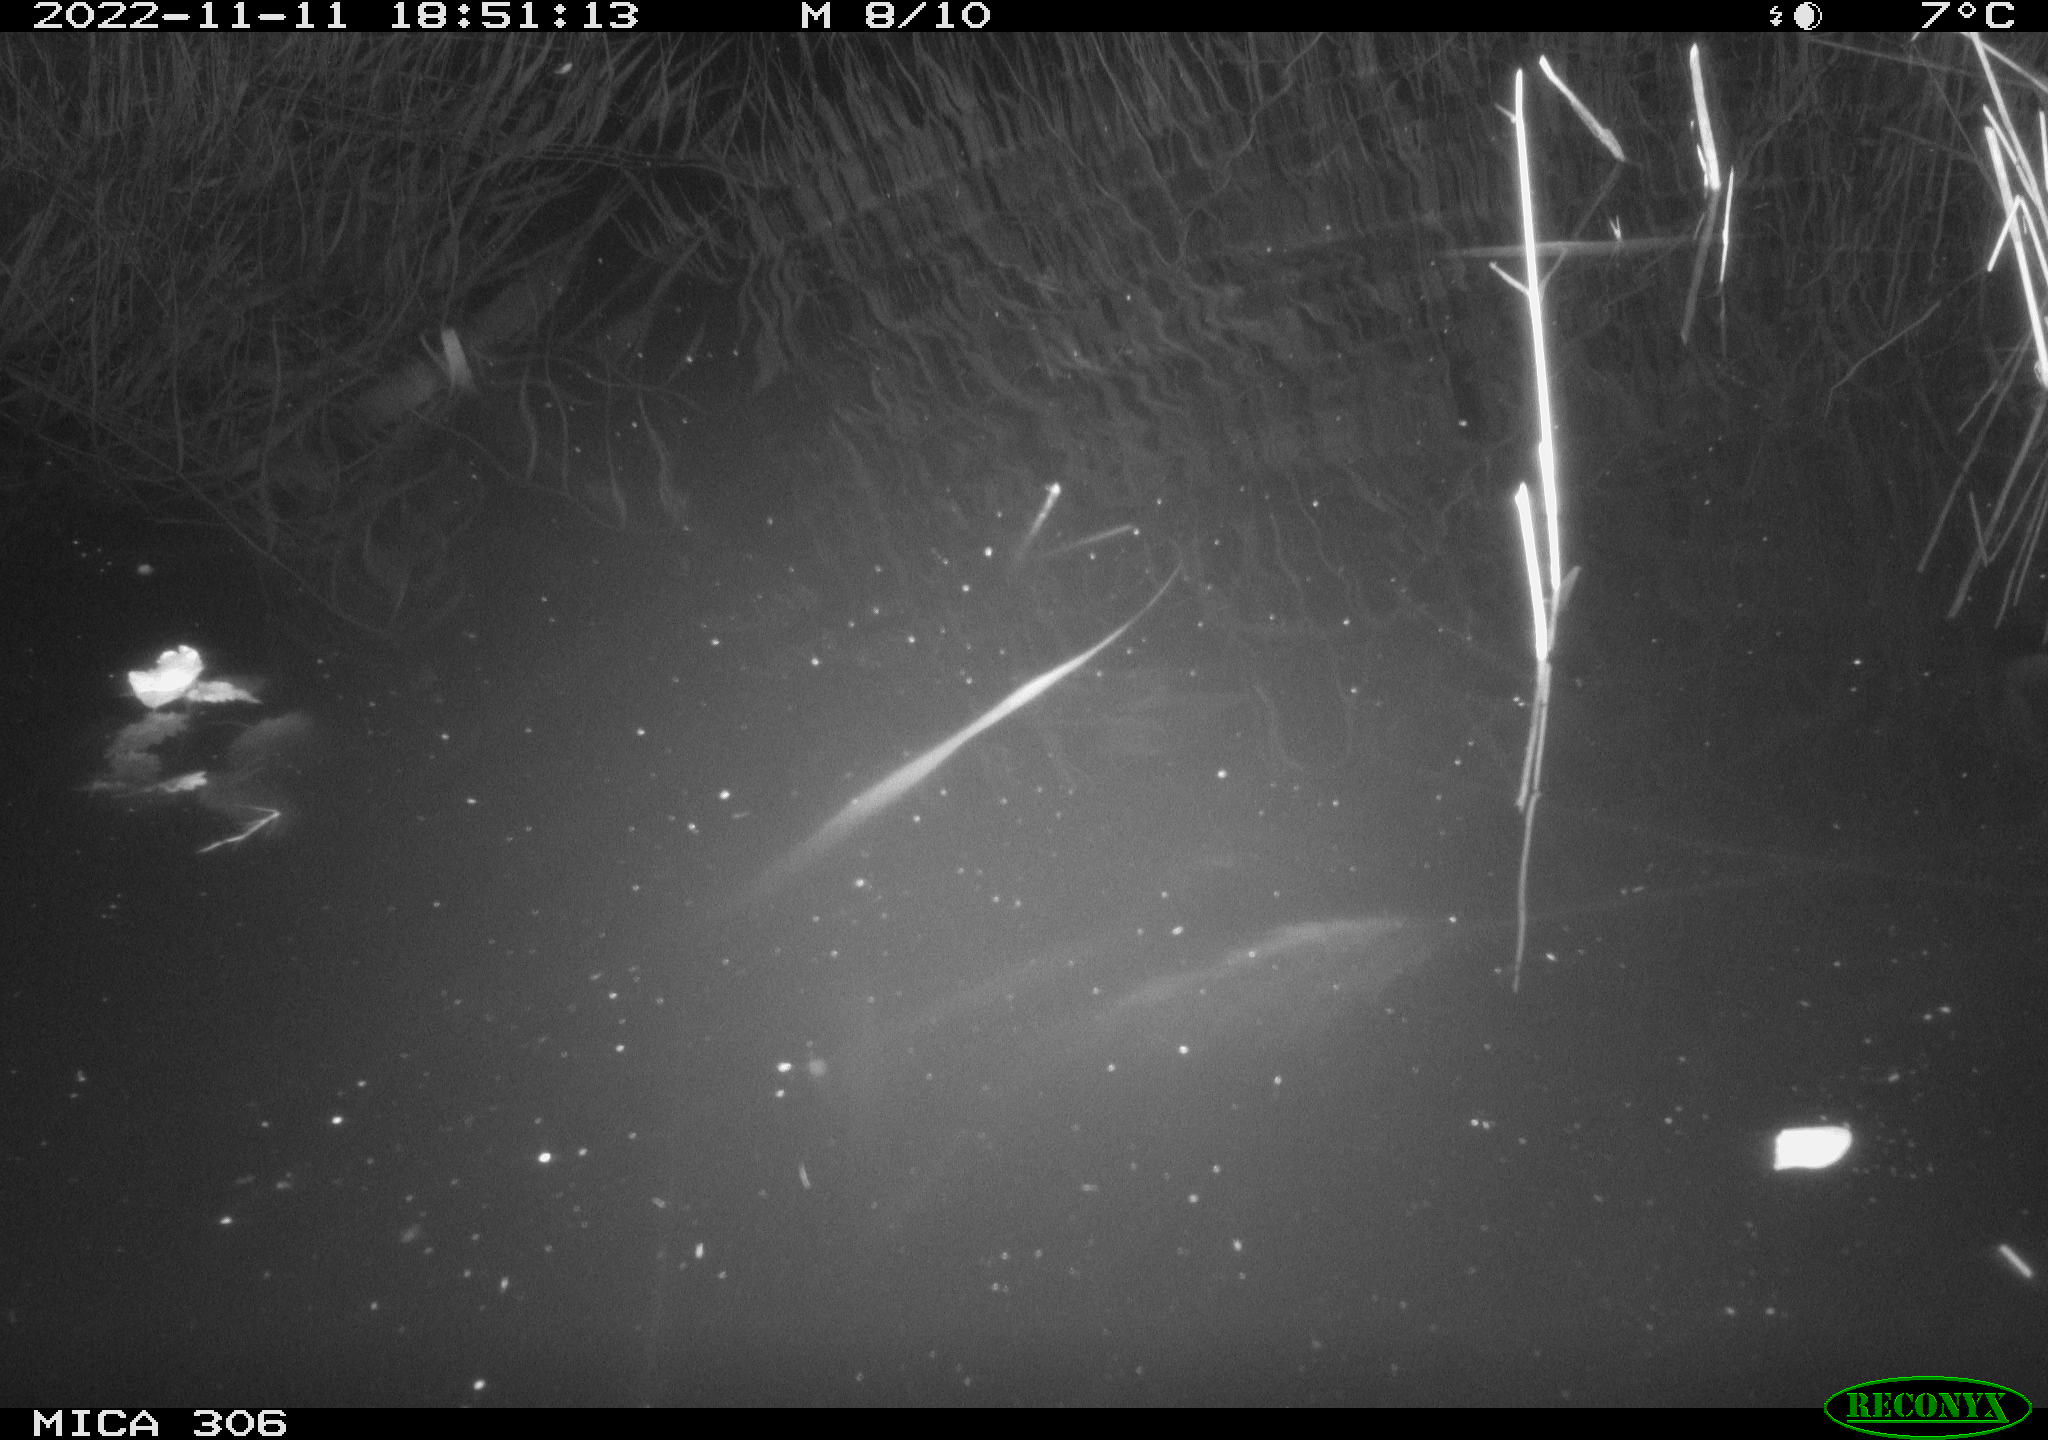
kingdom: Animalia
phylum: Chordata
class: Mammalia
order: Rodentia
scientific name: Rodentia
